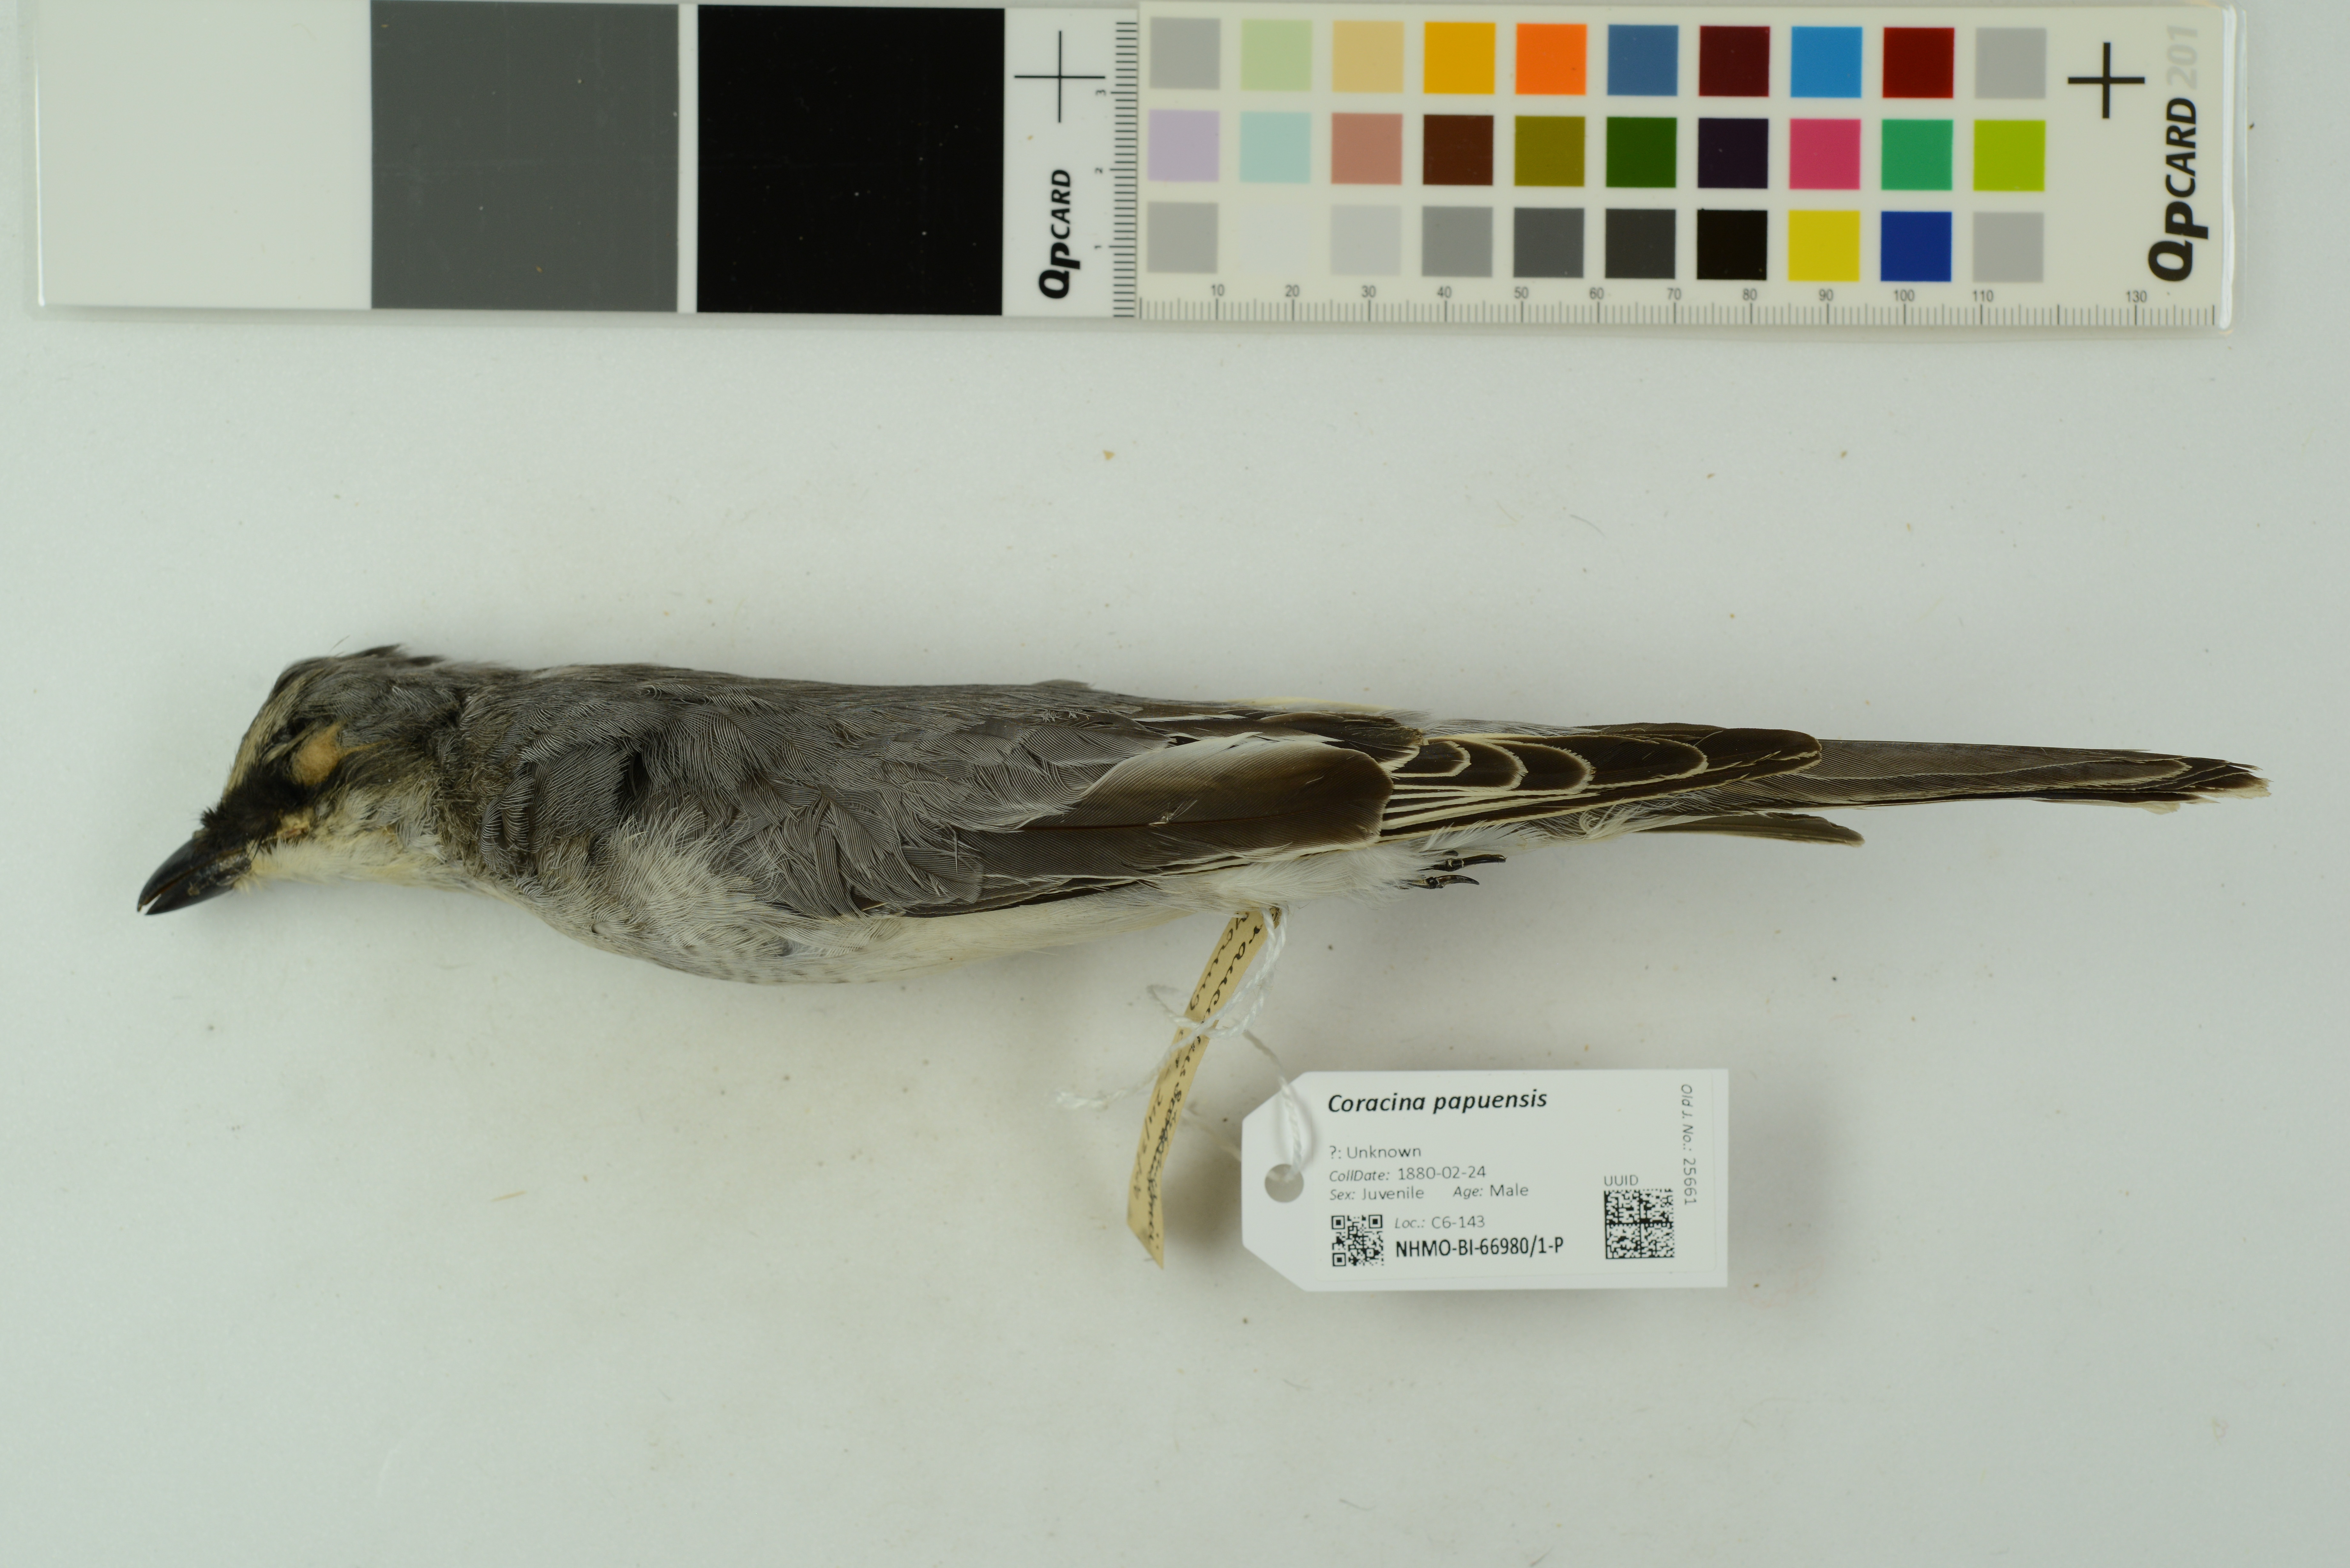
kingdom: Animalia
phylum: Chordata
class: Aves
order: Passeriformes
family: Campephagidae
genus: Coracina
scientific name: Coracina papuensis
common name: White-bellied cuckooshrike
